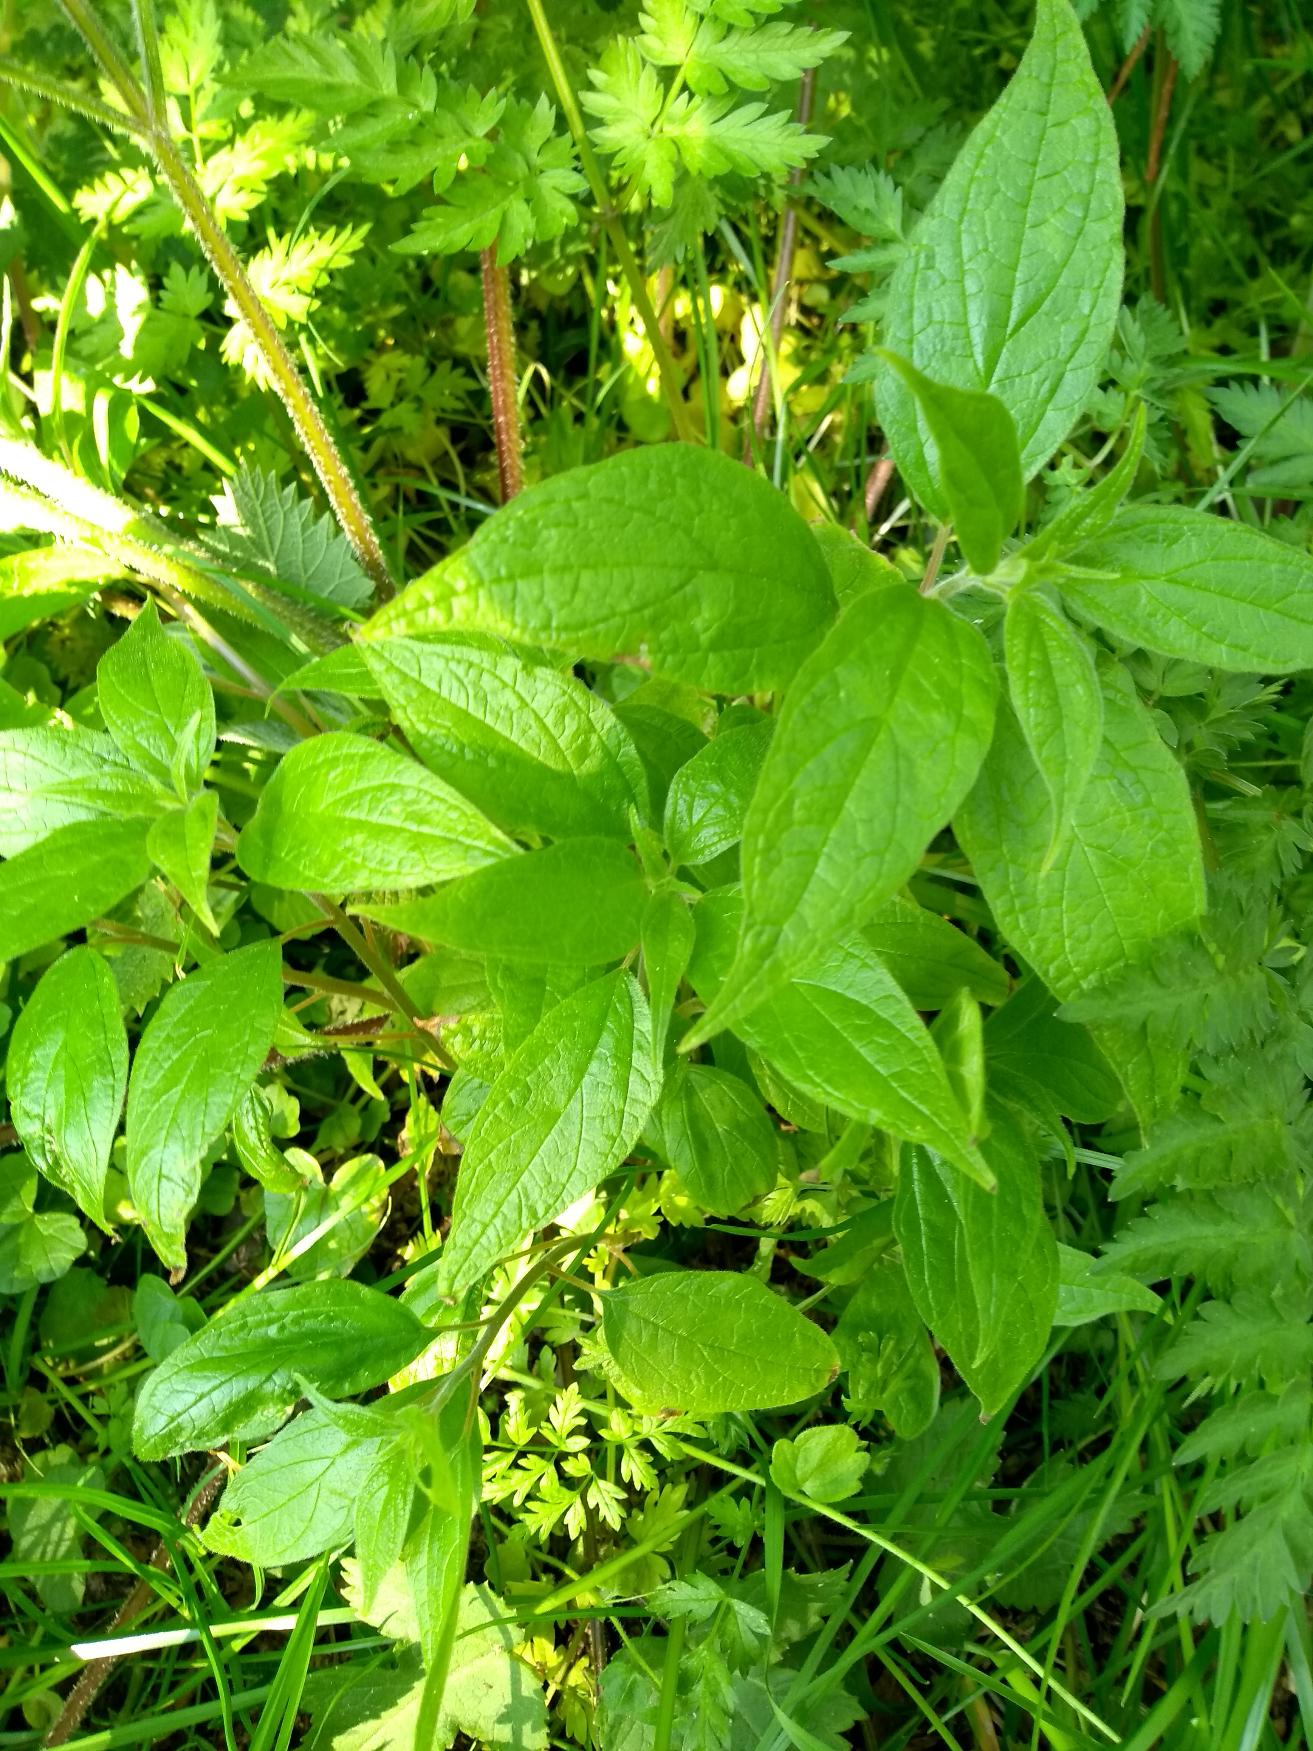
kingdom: Plantae
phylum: Tracheophyta
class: Magnoliopsida
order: Rosales
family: Urticaceae
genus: Parietaria
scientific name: Parietaria officinalis
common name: Almindelig springknap
